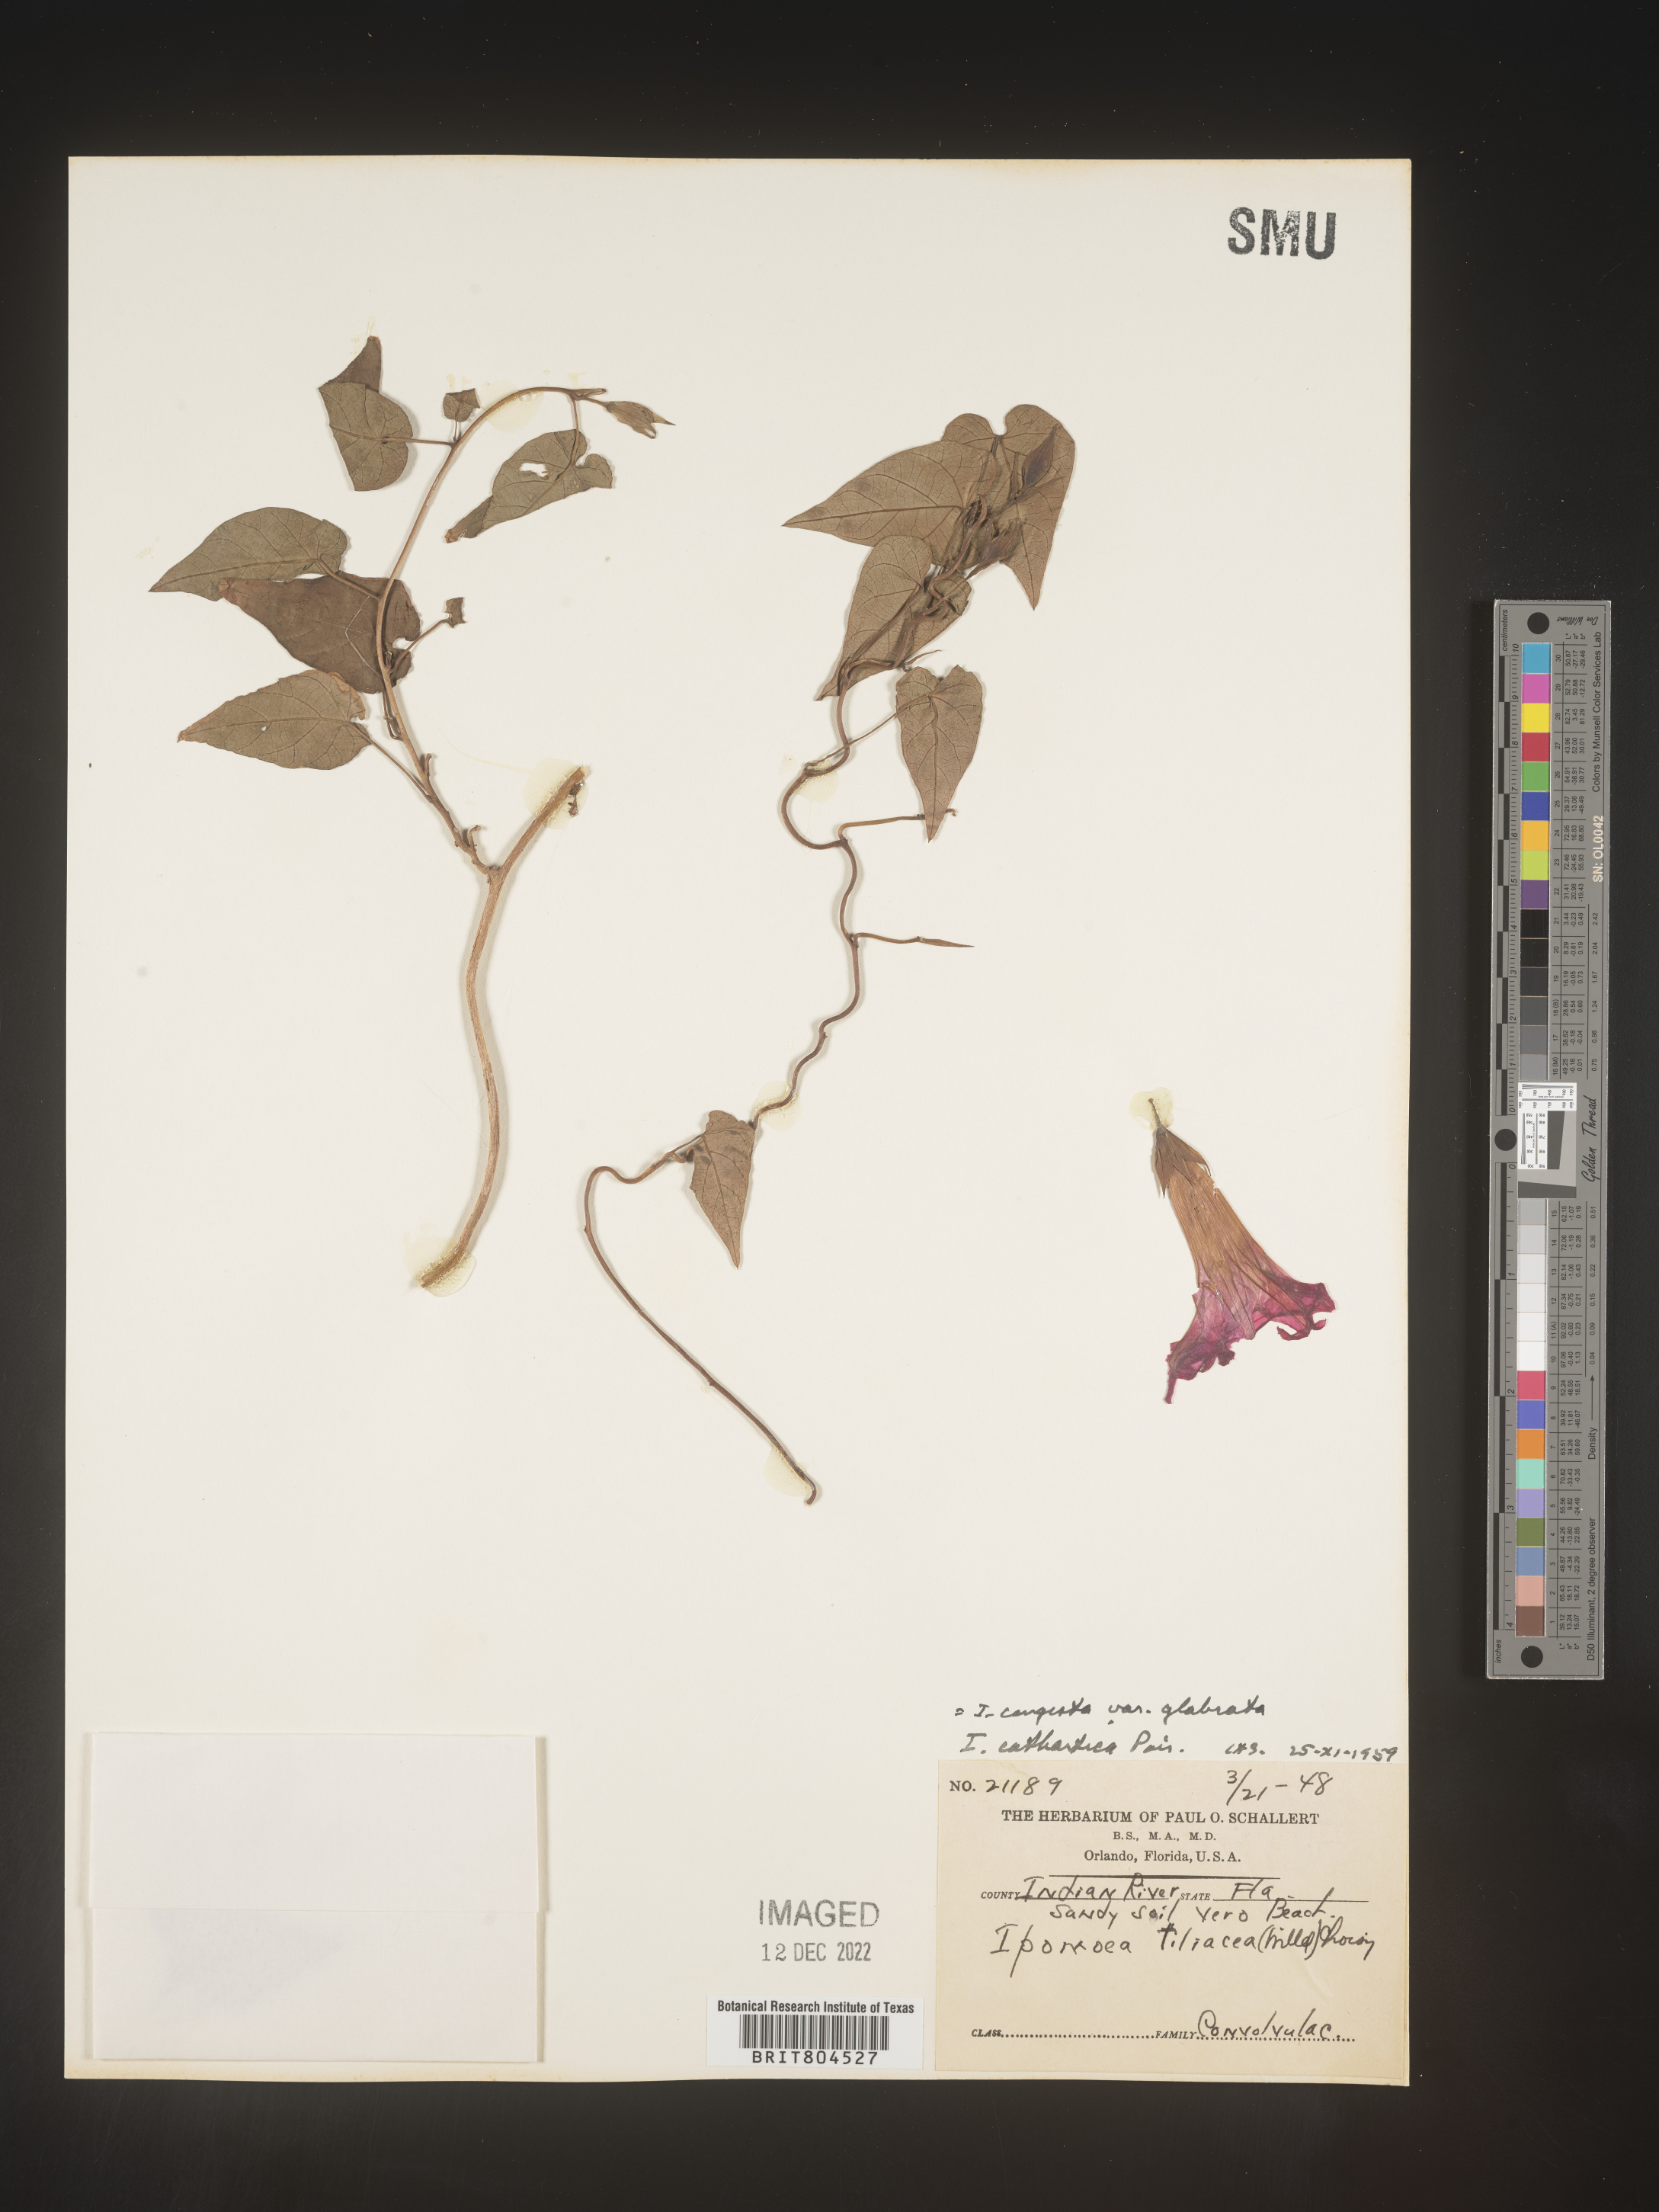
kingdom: Plantae
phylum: Tracheophyta
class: Magnoliopsida
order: Solanales
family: Convolvulaceae
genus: Ipomoea
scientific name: Ipomoea coccinea
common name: Red morning-glory
